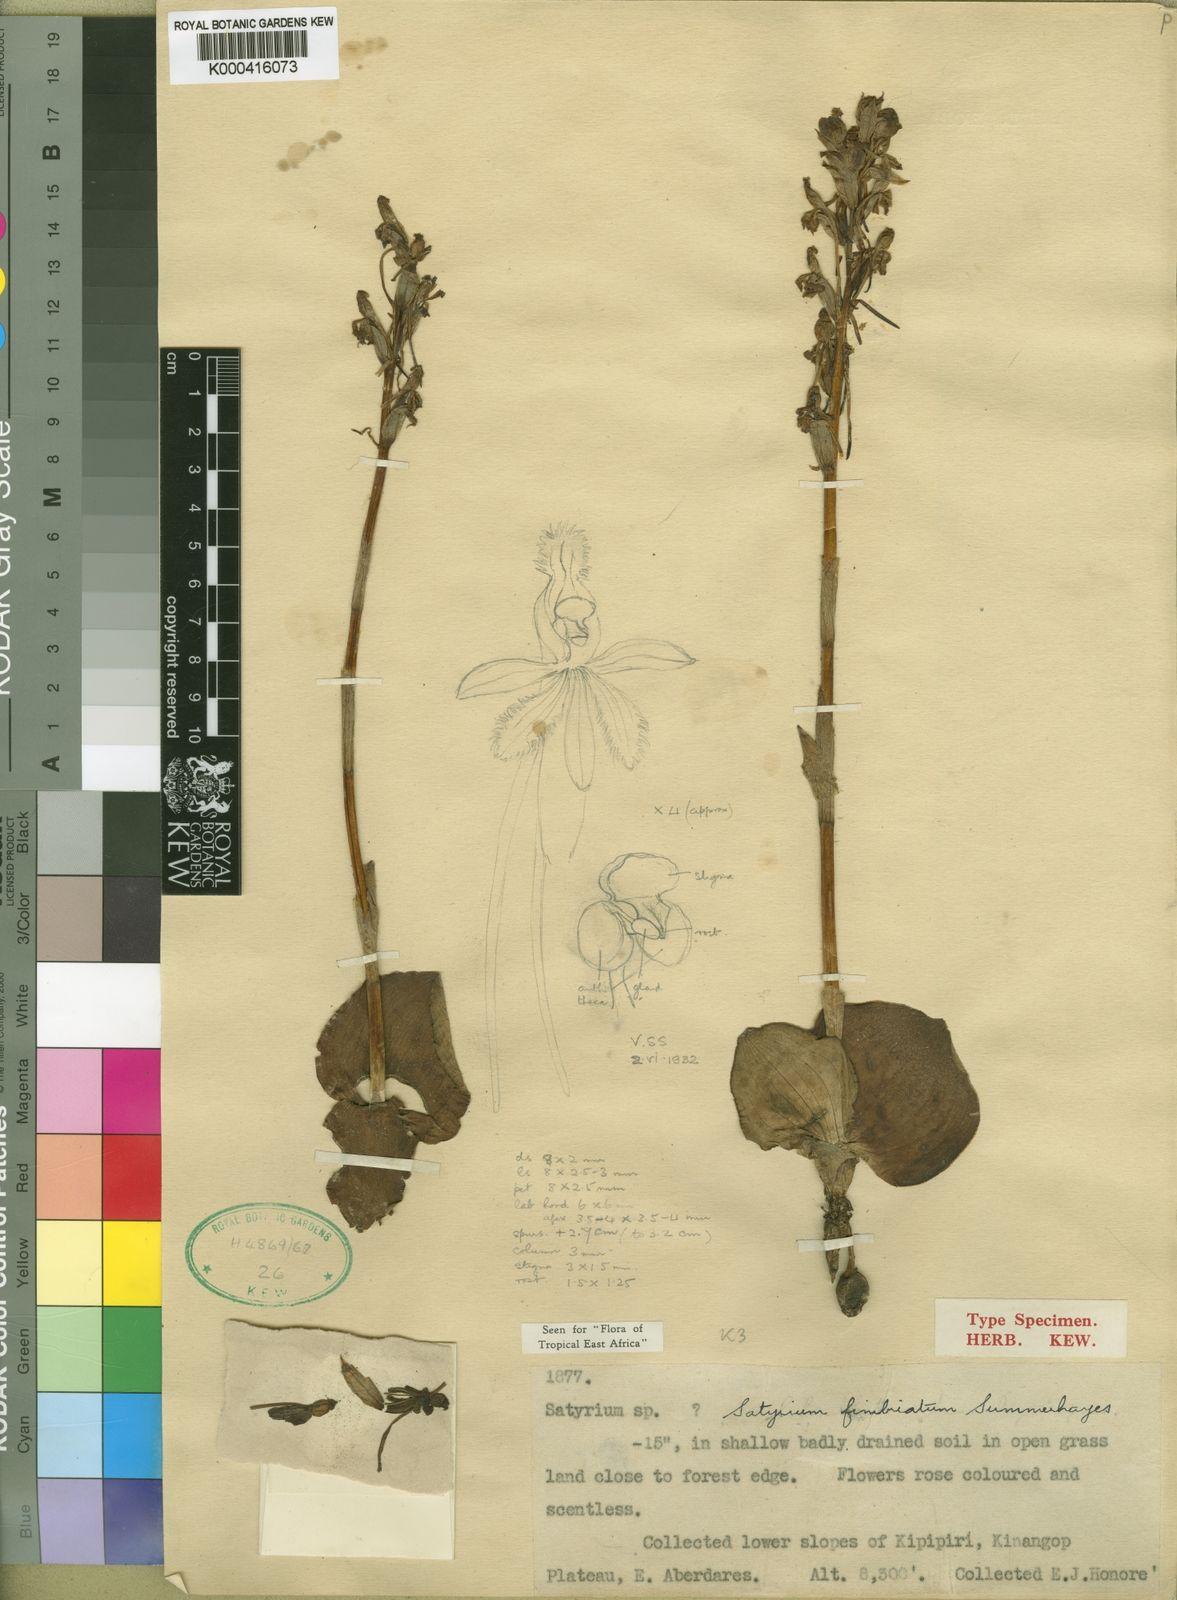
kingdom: Plantae
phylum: Tracheophyta
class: Liliopsida
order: Asparagales
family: Orchidaceae
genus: Satyrium
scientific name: Satyrium fimbriatum
